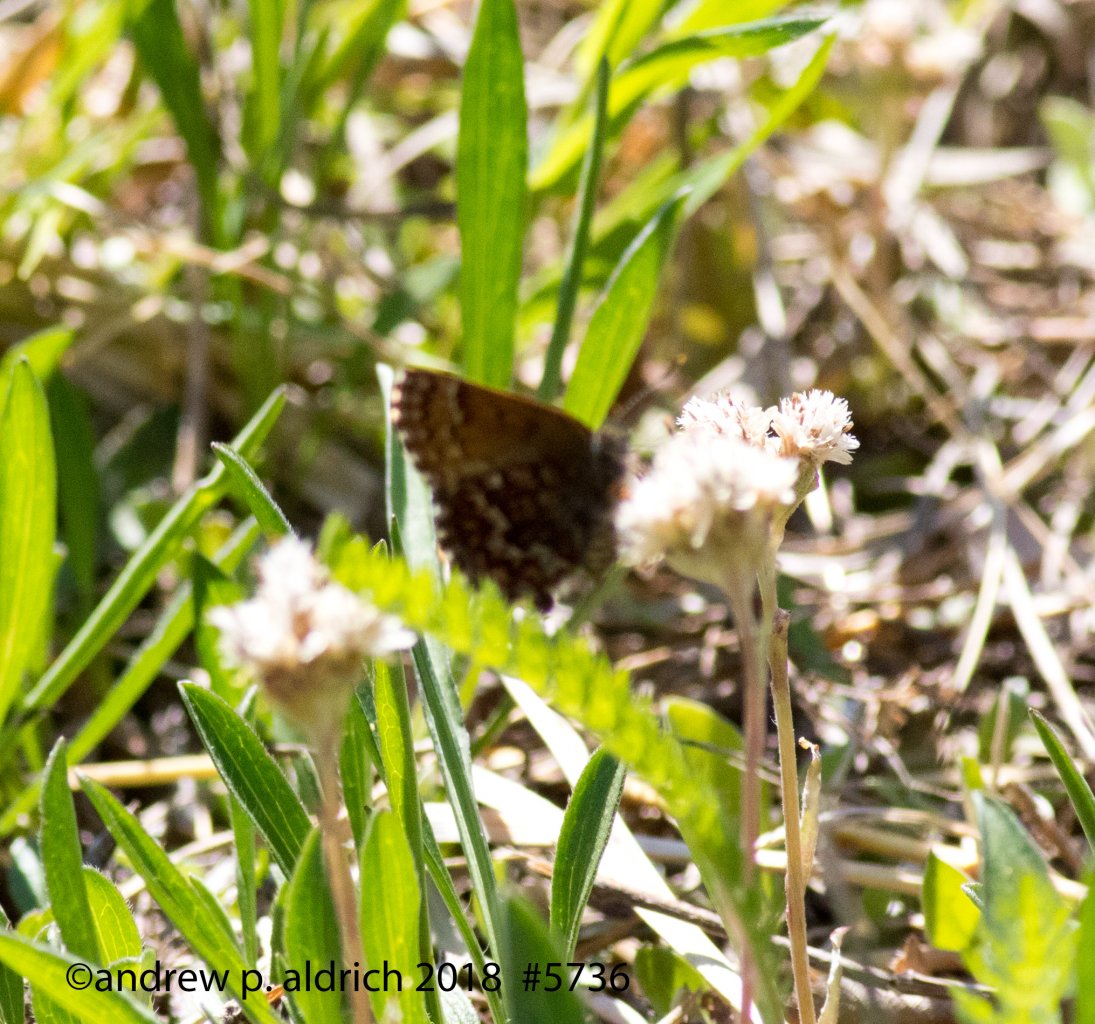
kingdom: Animalia
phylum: Arthropoda
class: Insecta
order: Lepidoptera
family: Lycaenidae
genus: Incisalia
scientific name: Incisalia niphon
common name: Eastern Pine Elfin
